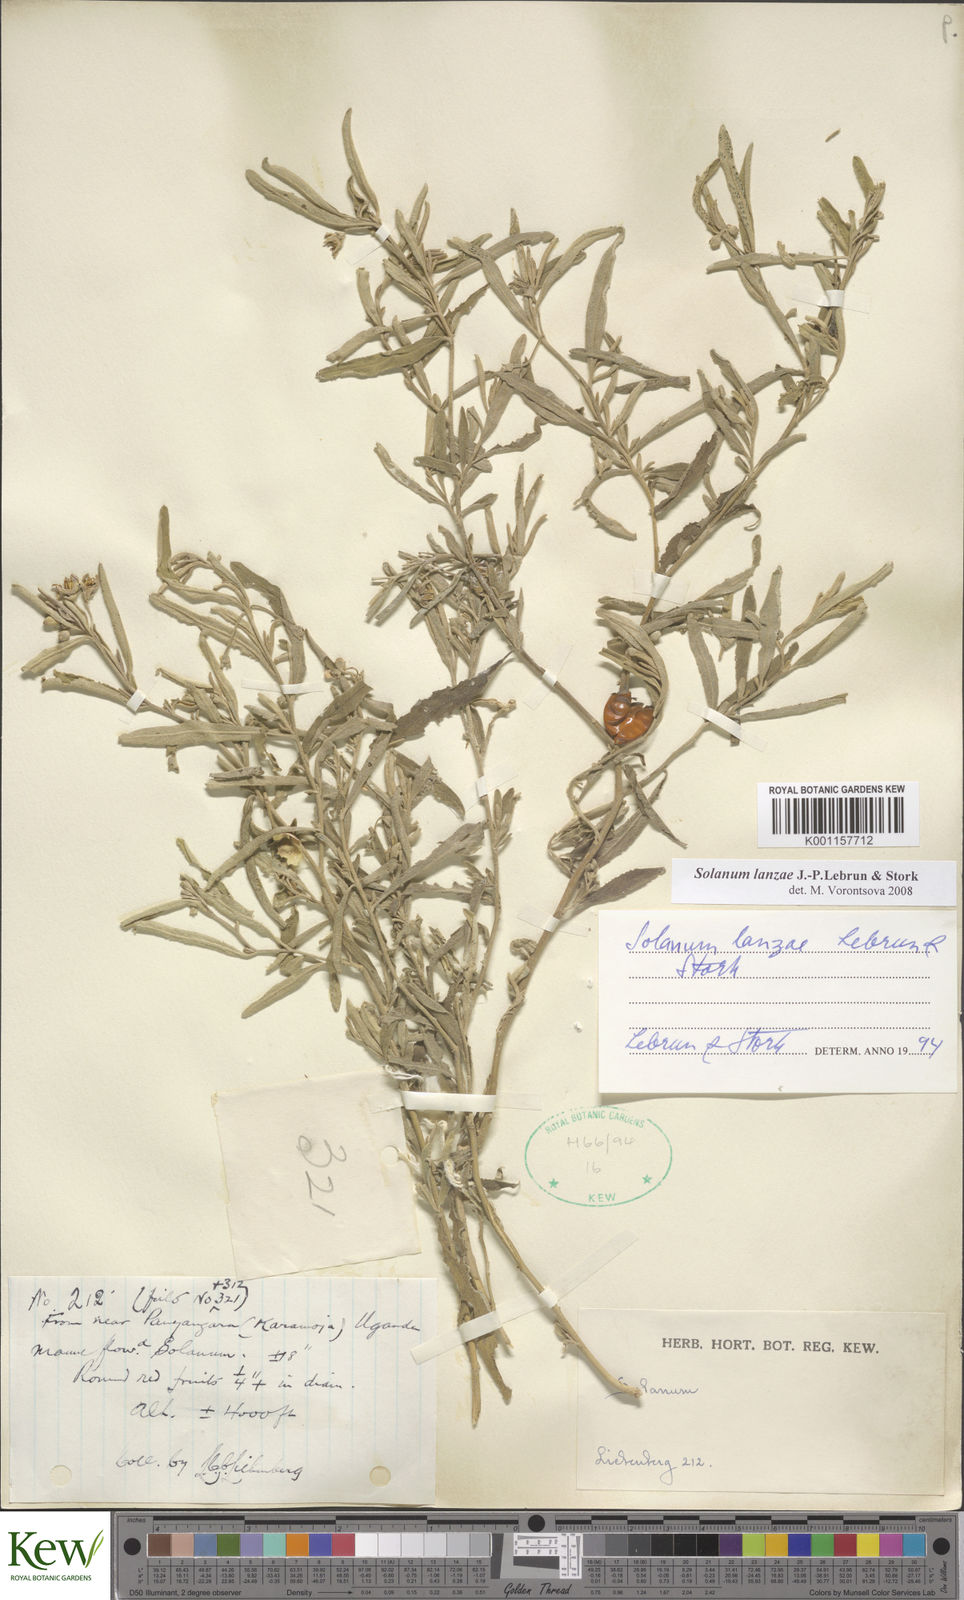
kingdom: Plantae
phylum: Tracheophyta
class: Magnoliopsida
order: Solanales
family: Solanaceae
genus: Solanum
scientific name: Solanum lanzae
